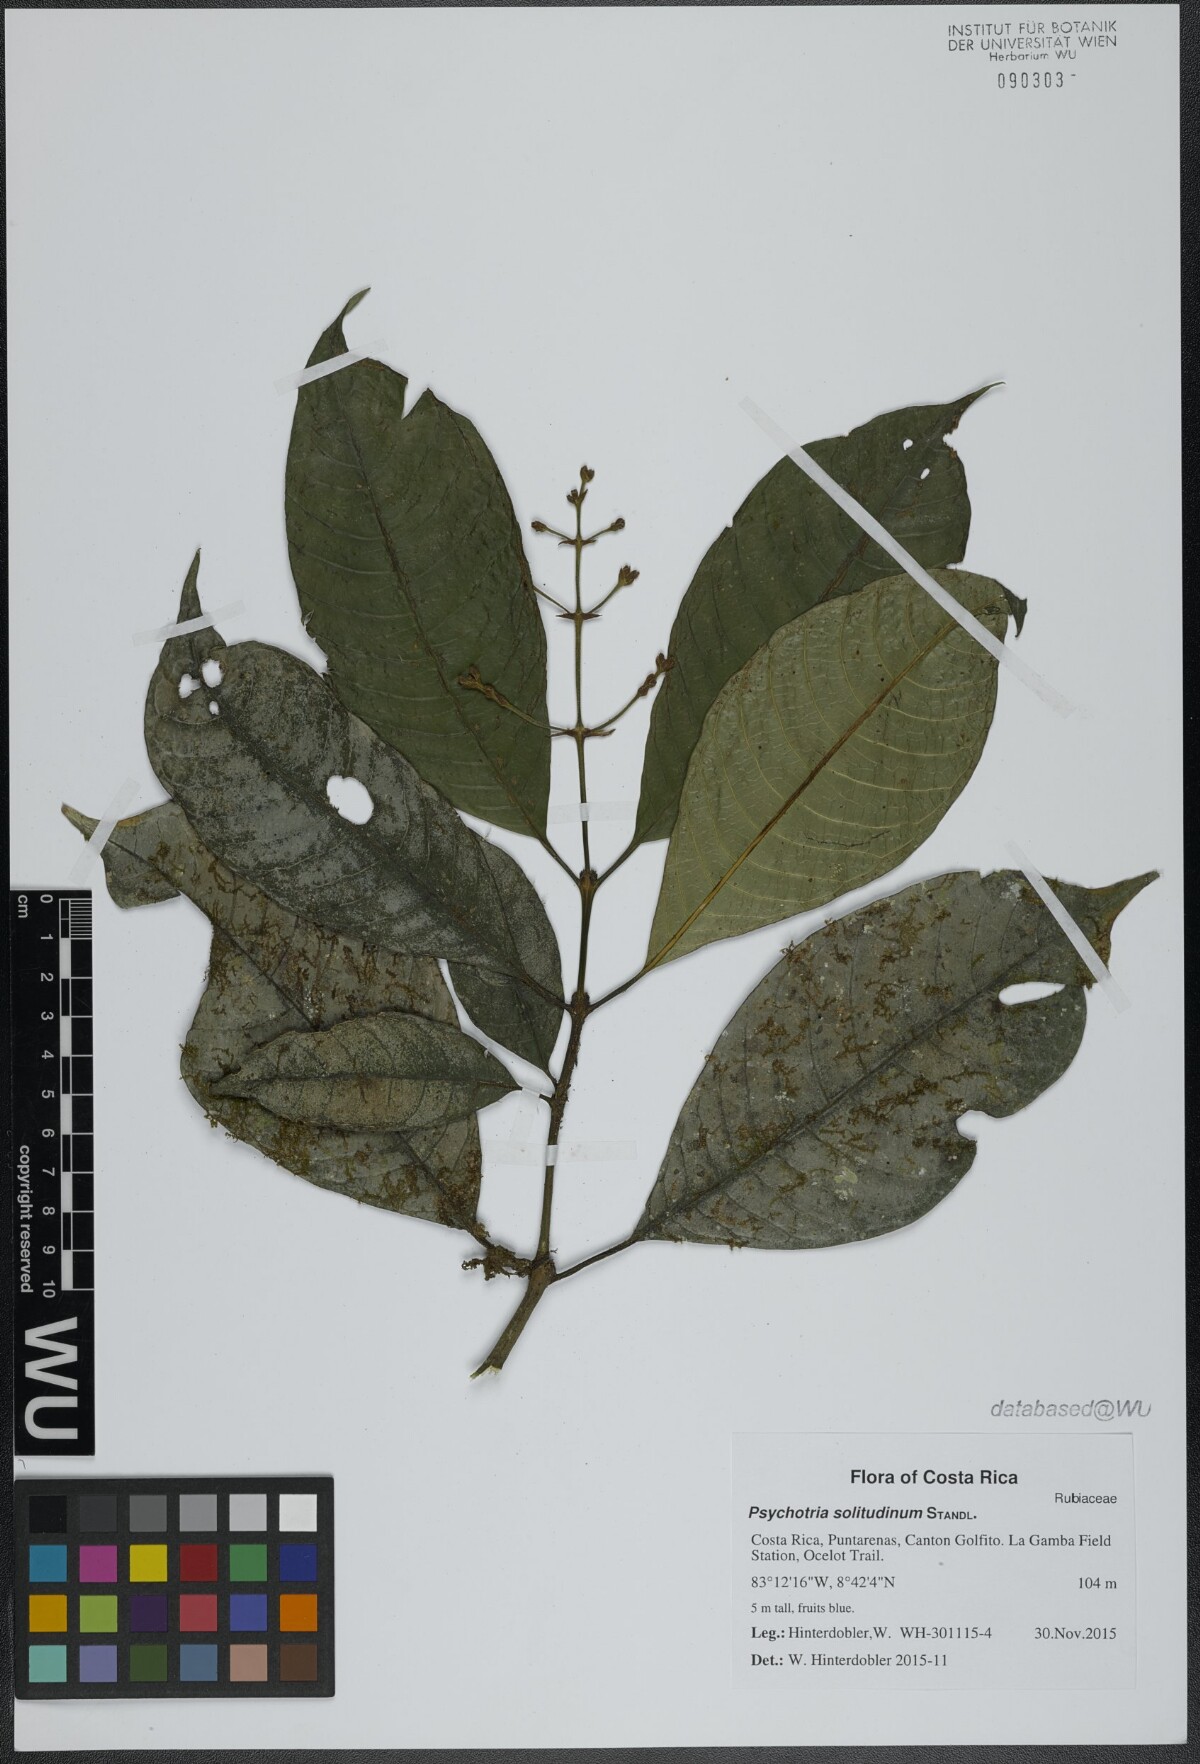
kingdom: Plantae
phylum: Tracheophyta
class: Magnoliopsida
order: Gentianales
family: Rubiaceae
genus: Palicourea
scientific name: Palicourea solitudinum
